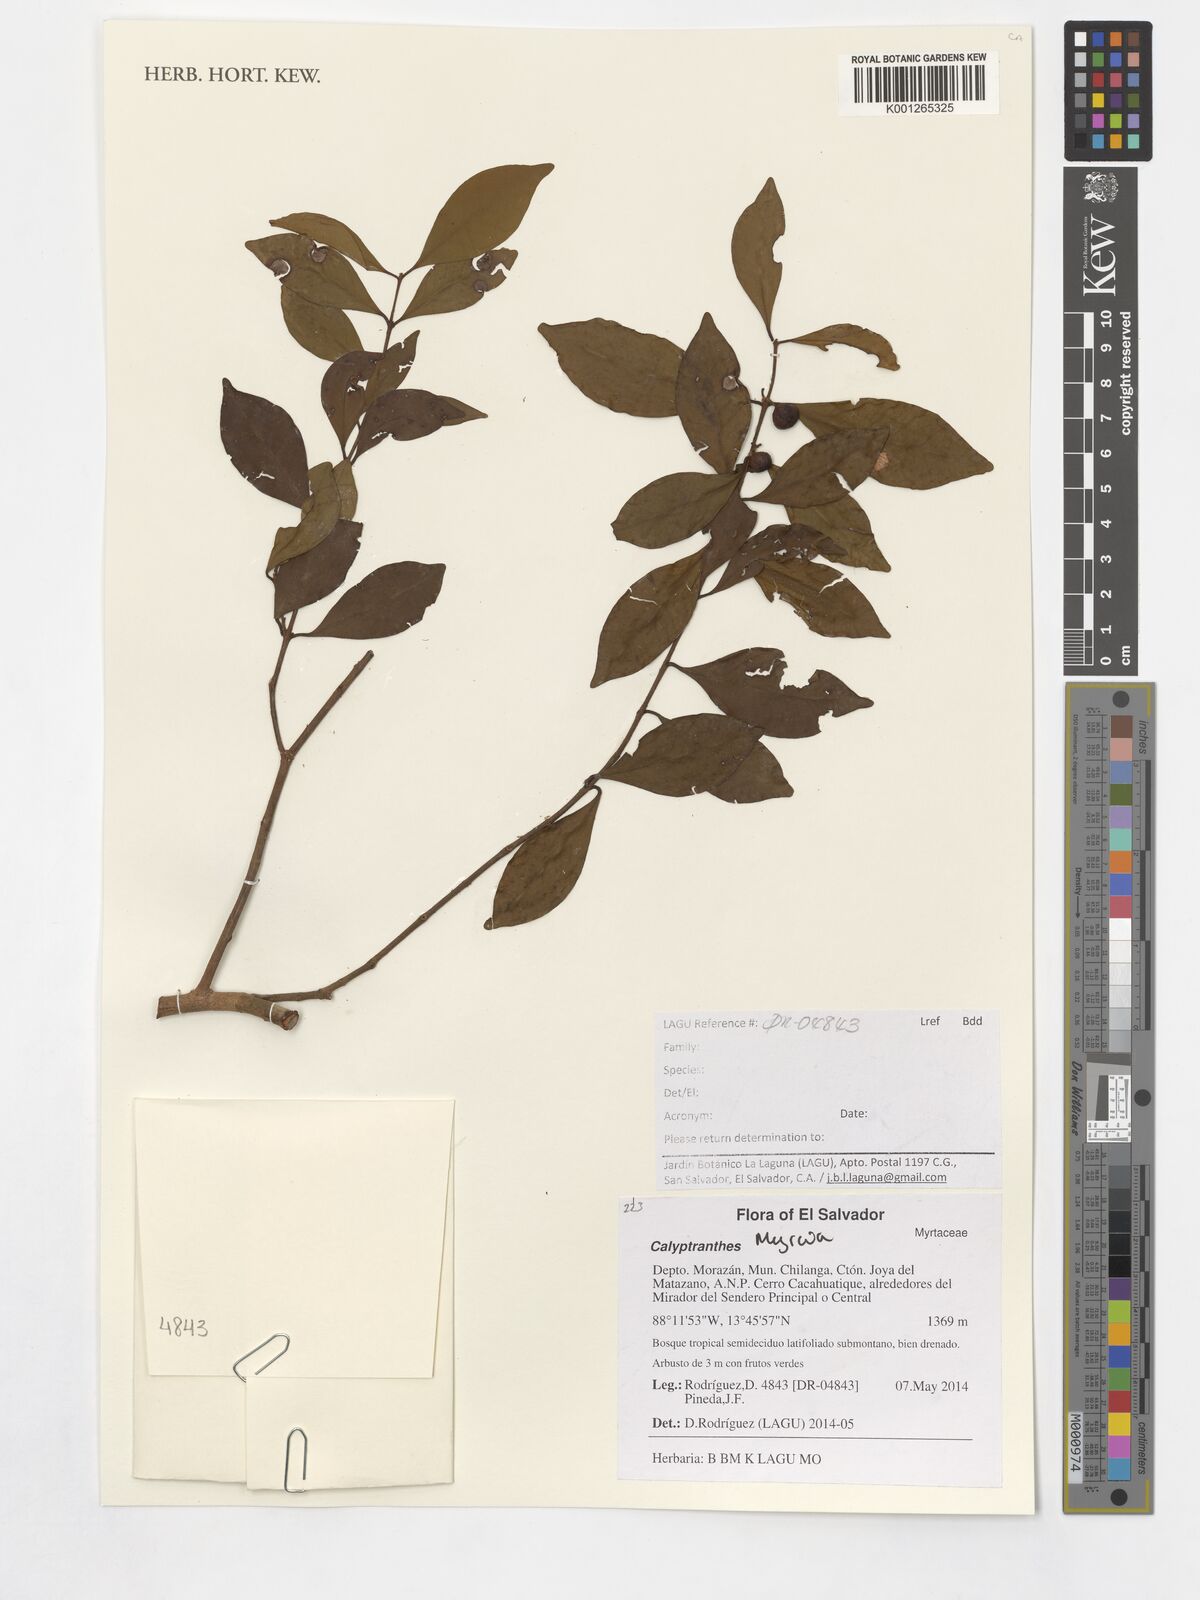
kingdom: Plantae
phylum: Tracheophyta
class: Magnoliopsida
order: Myrtales
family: Myrtaceae
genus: Myrcia
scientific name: Myrcia
